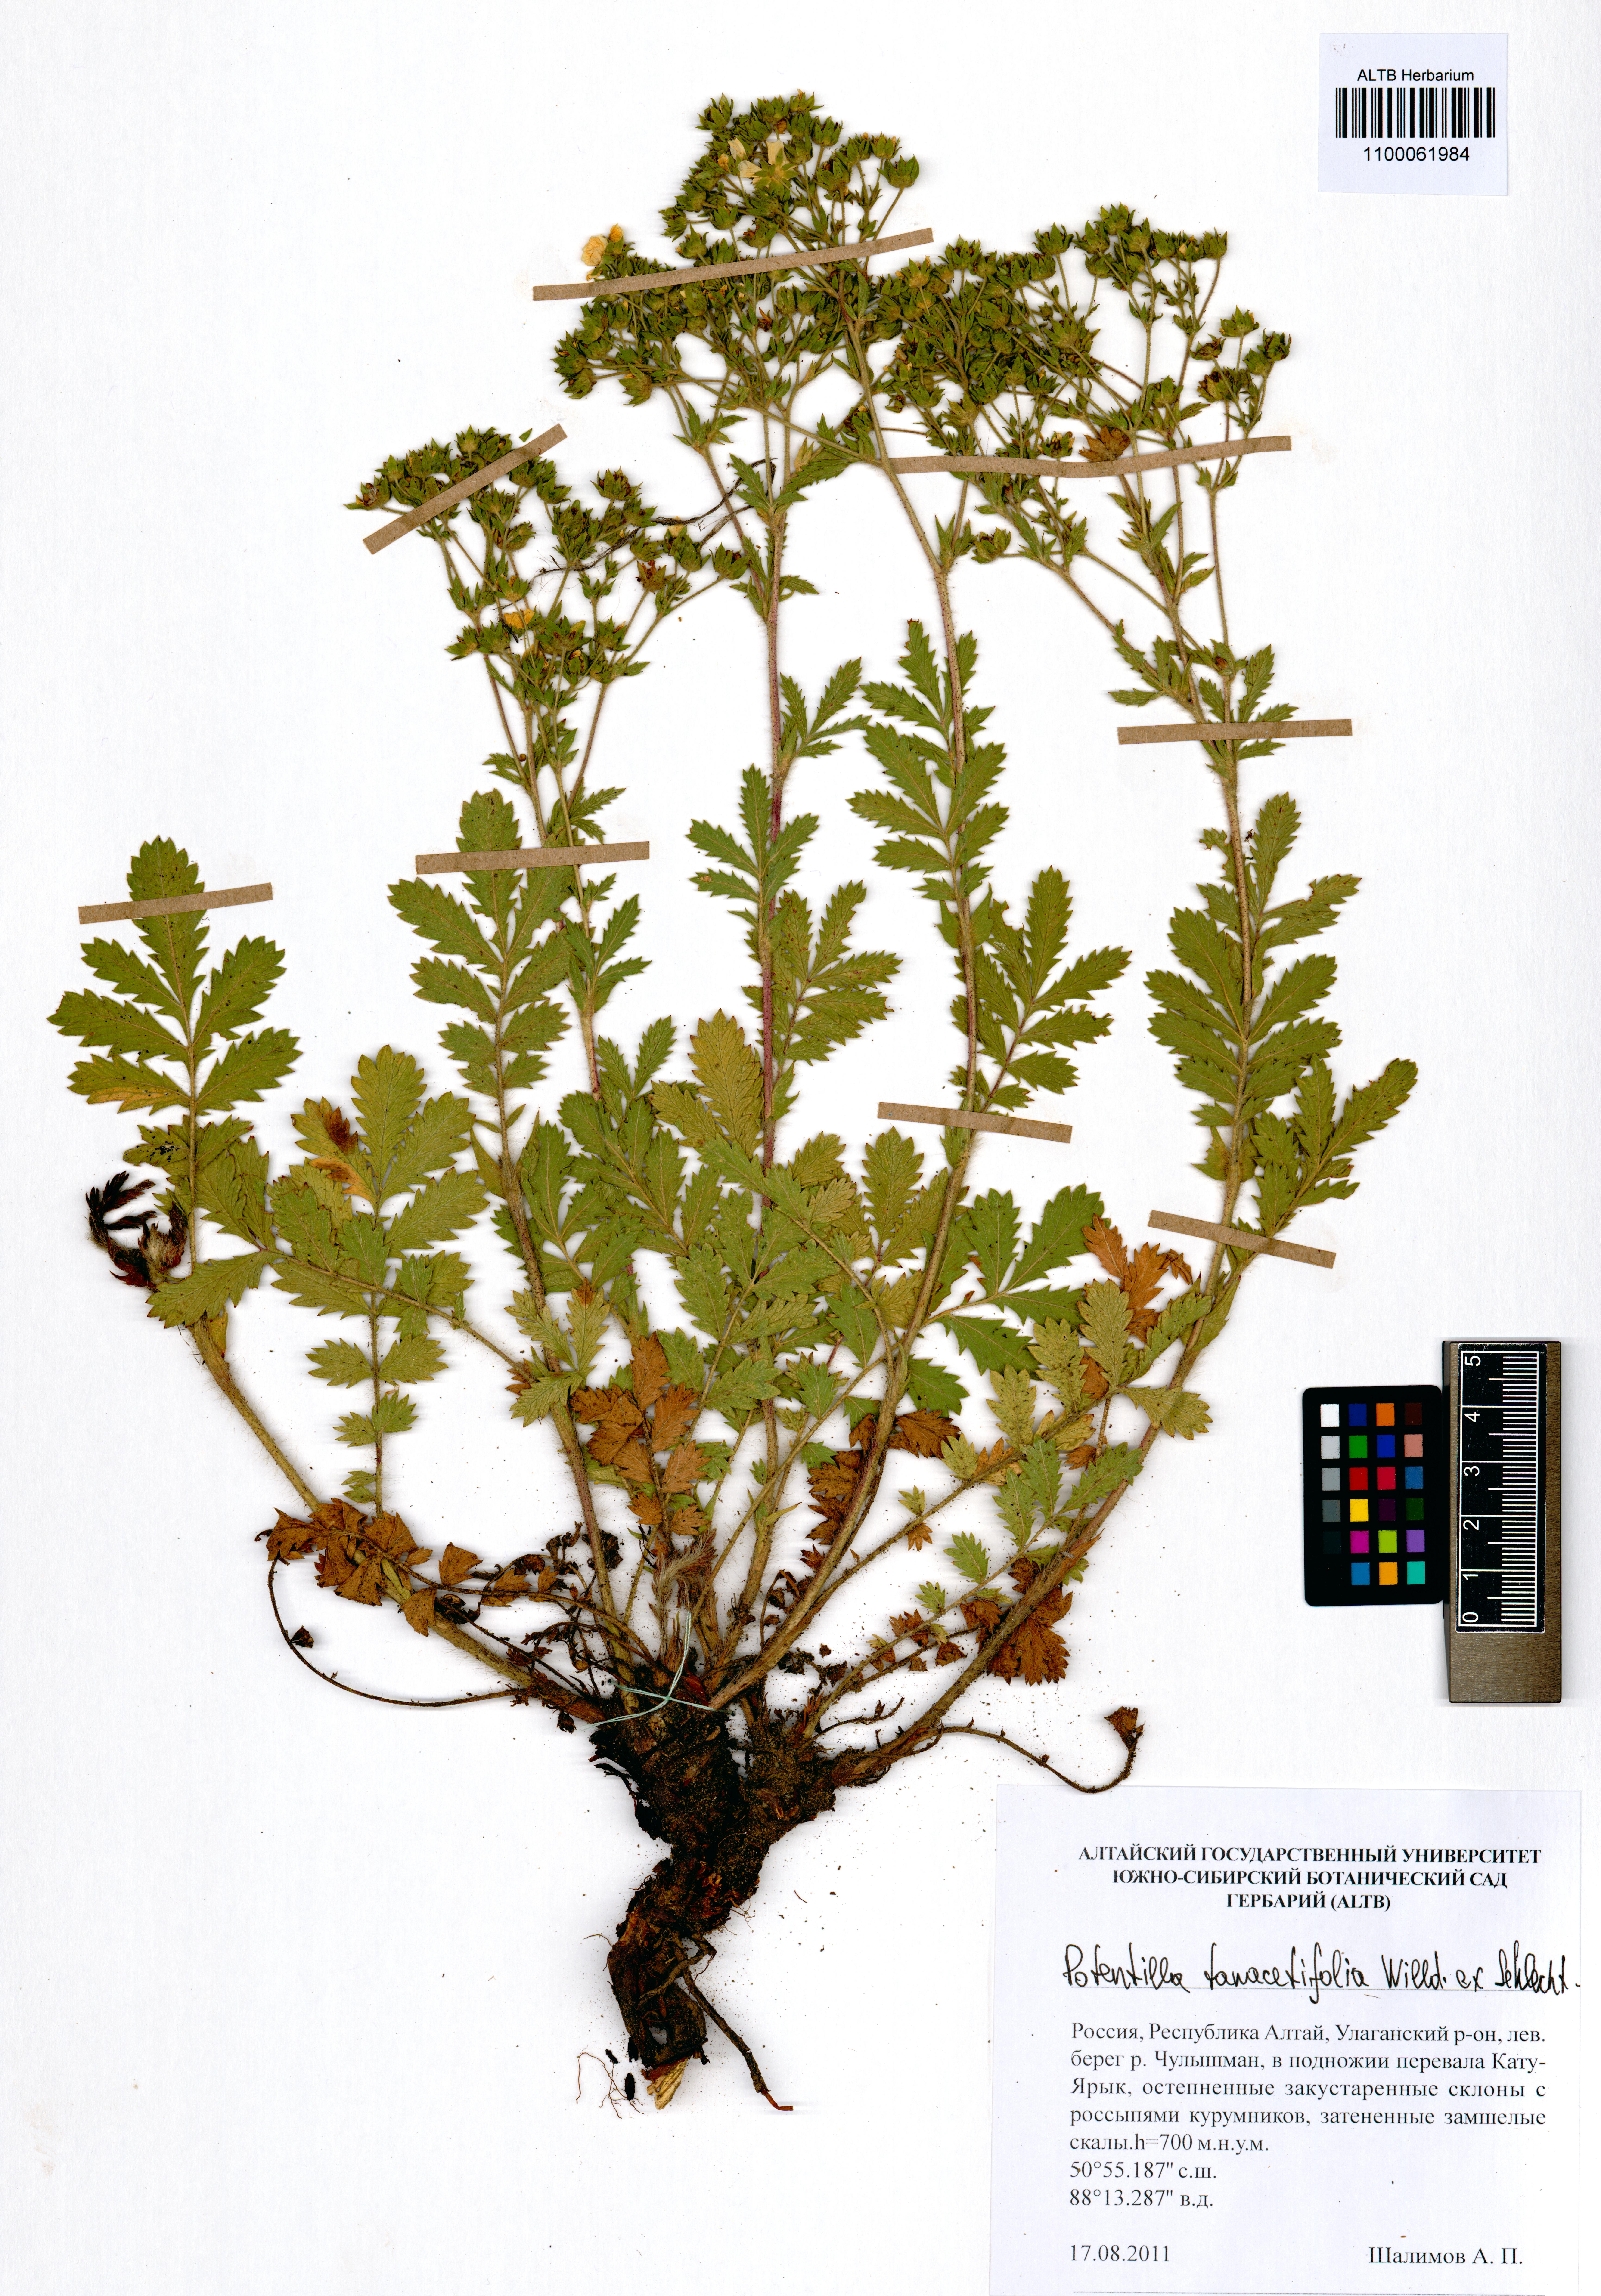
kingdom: Plantae
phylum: Tracheophyta
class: Magnoliopsida
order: Rosales
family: Rosaceae
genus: Potentilla
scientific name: Potentilla tanacetifolia
